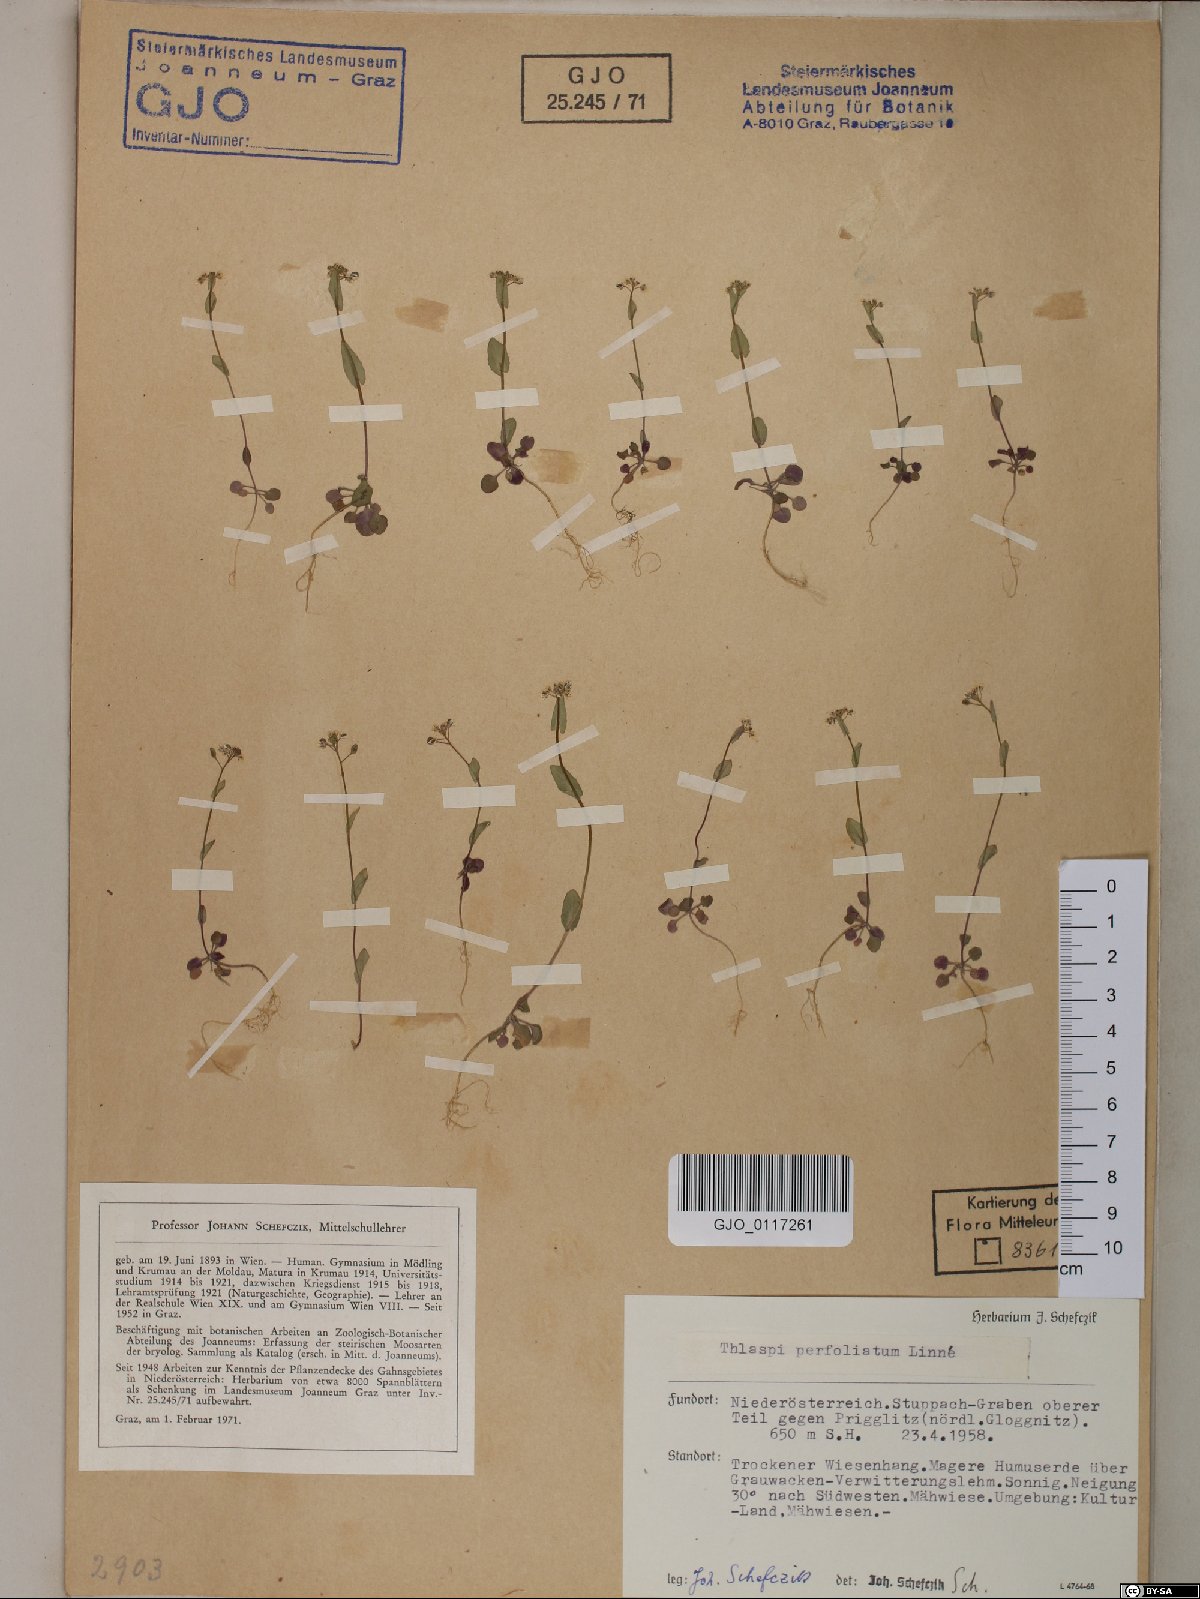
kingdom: Plantae
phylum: Tracheophyta
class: Magnoliopsida
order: Brassicales
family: Brassicaceae
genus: Noccaea
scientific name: Noccaea perfoliata
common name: Perfoliate pennycress
